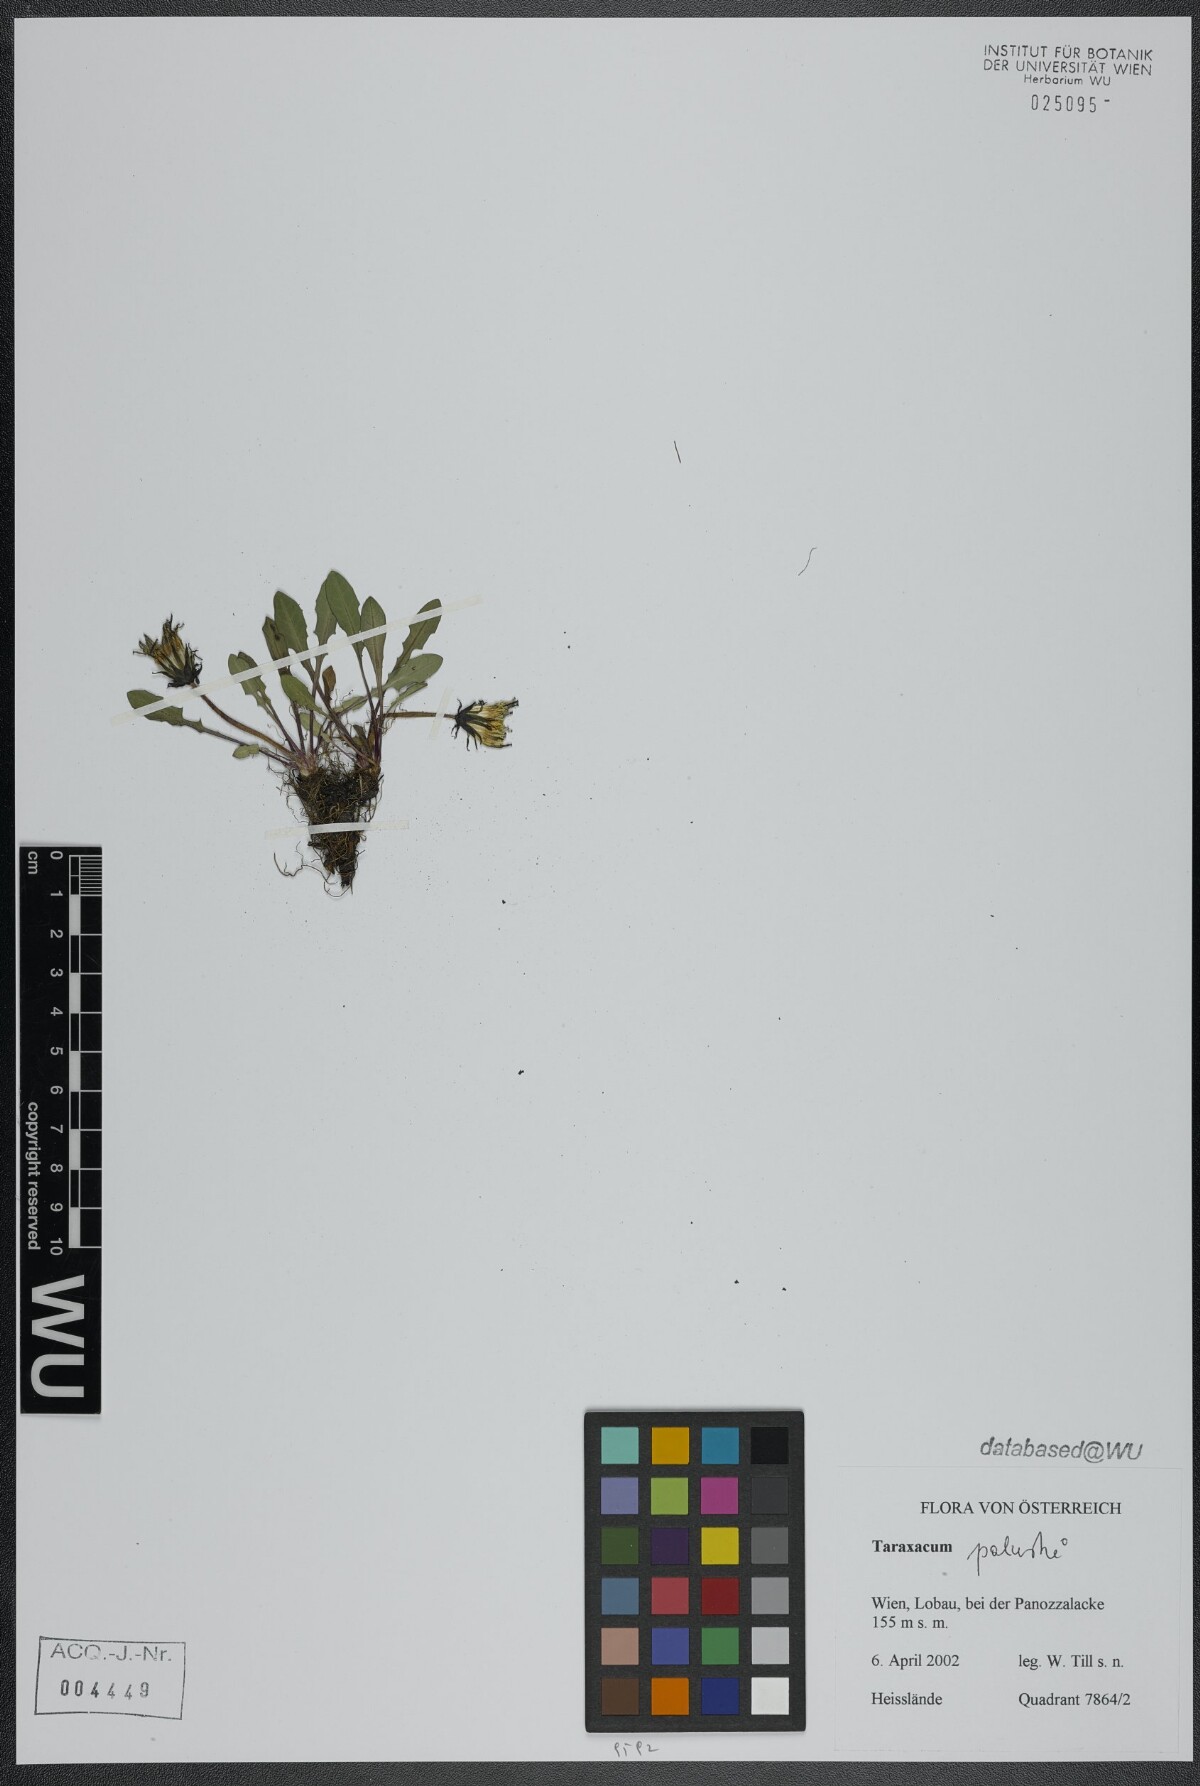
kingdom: Plantae
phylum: Tracheophyta
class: Magnoliopsida
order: Asterales
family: Asteraceae
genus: Taraxacum
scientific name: Taraxacum palustre
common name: Marsh dandelion
